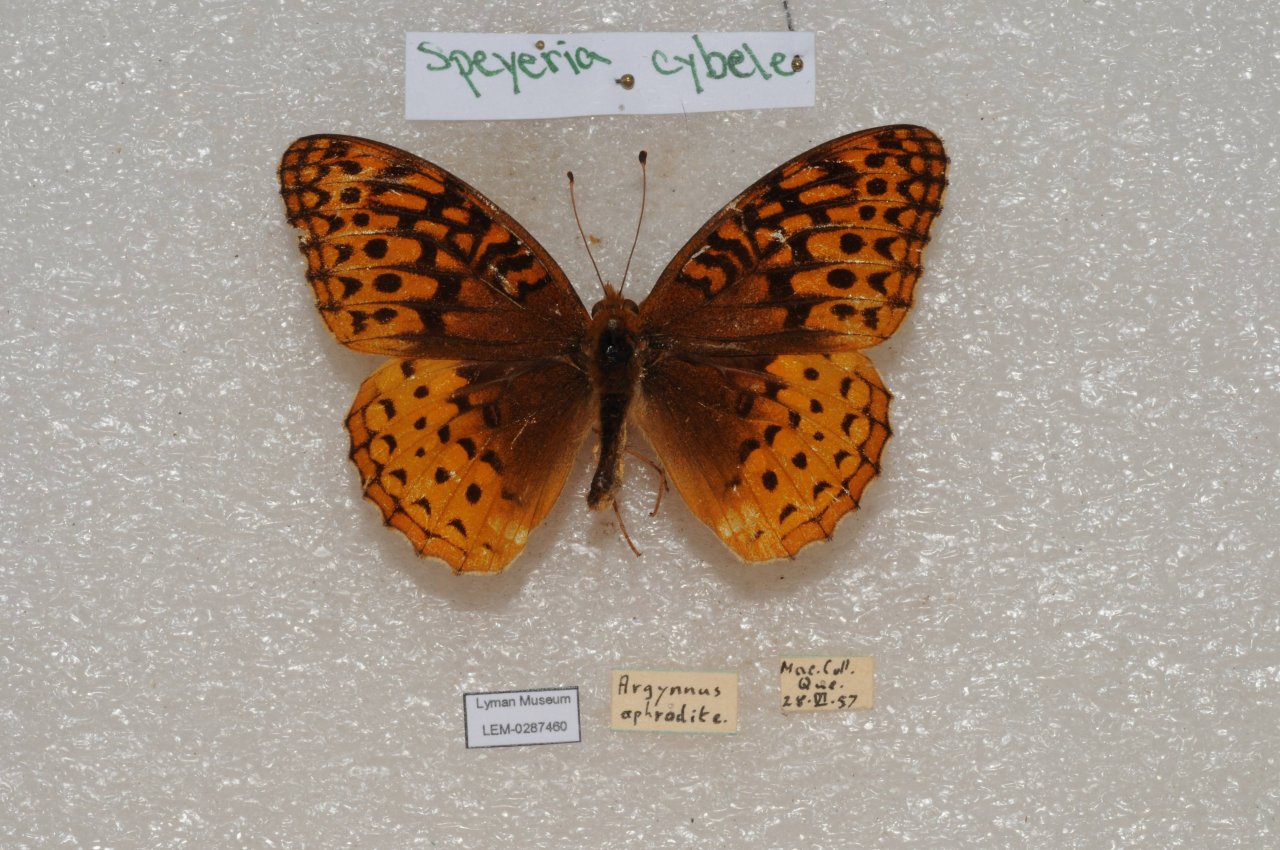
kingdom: Animalia
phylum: Arthropoda
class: Insecta
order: Lepidoptera
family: Nymphalidae
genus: Speyeria
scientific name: Speyeria cybele
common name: Great Spangled Fritillary
